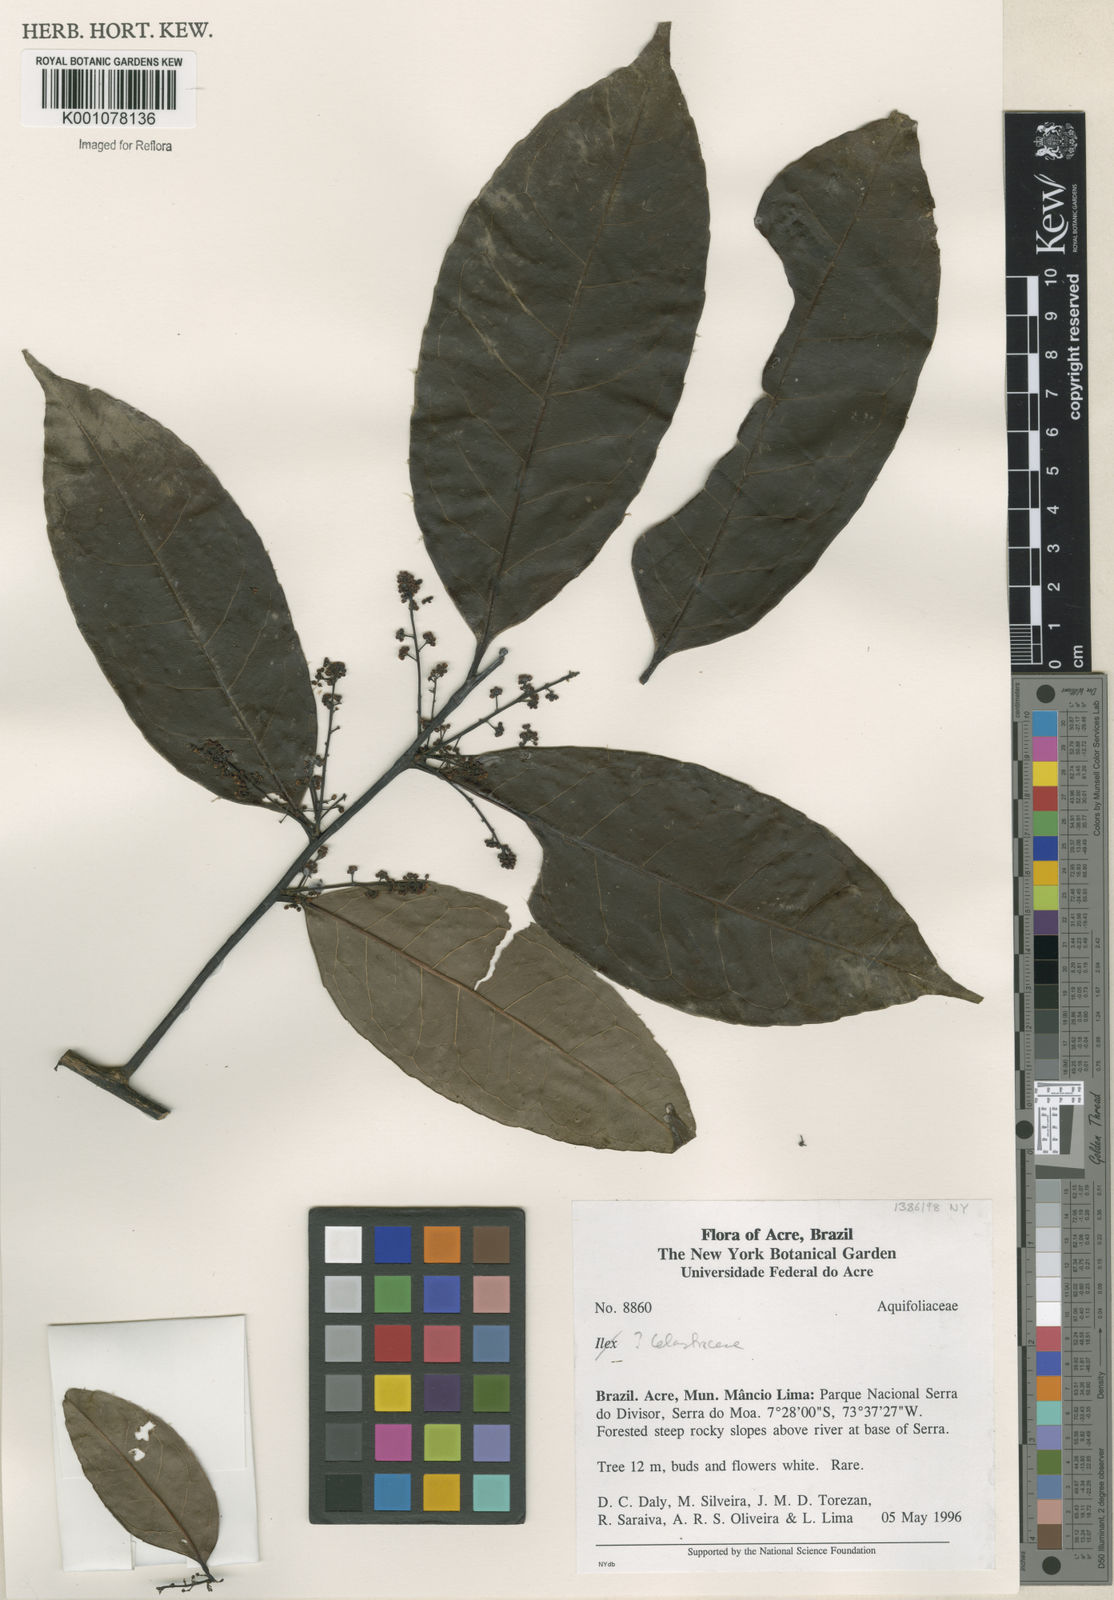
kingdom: Plantae
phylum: Tracheophyta
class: Magnoliopsida
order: Celastrales
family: Celastraceae
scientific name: Celastraceae
